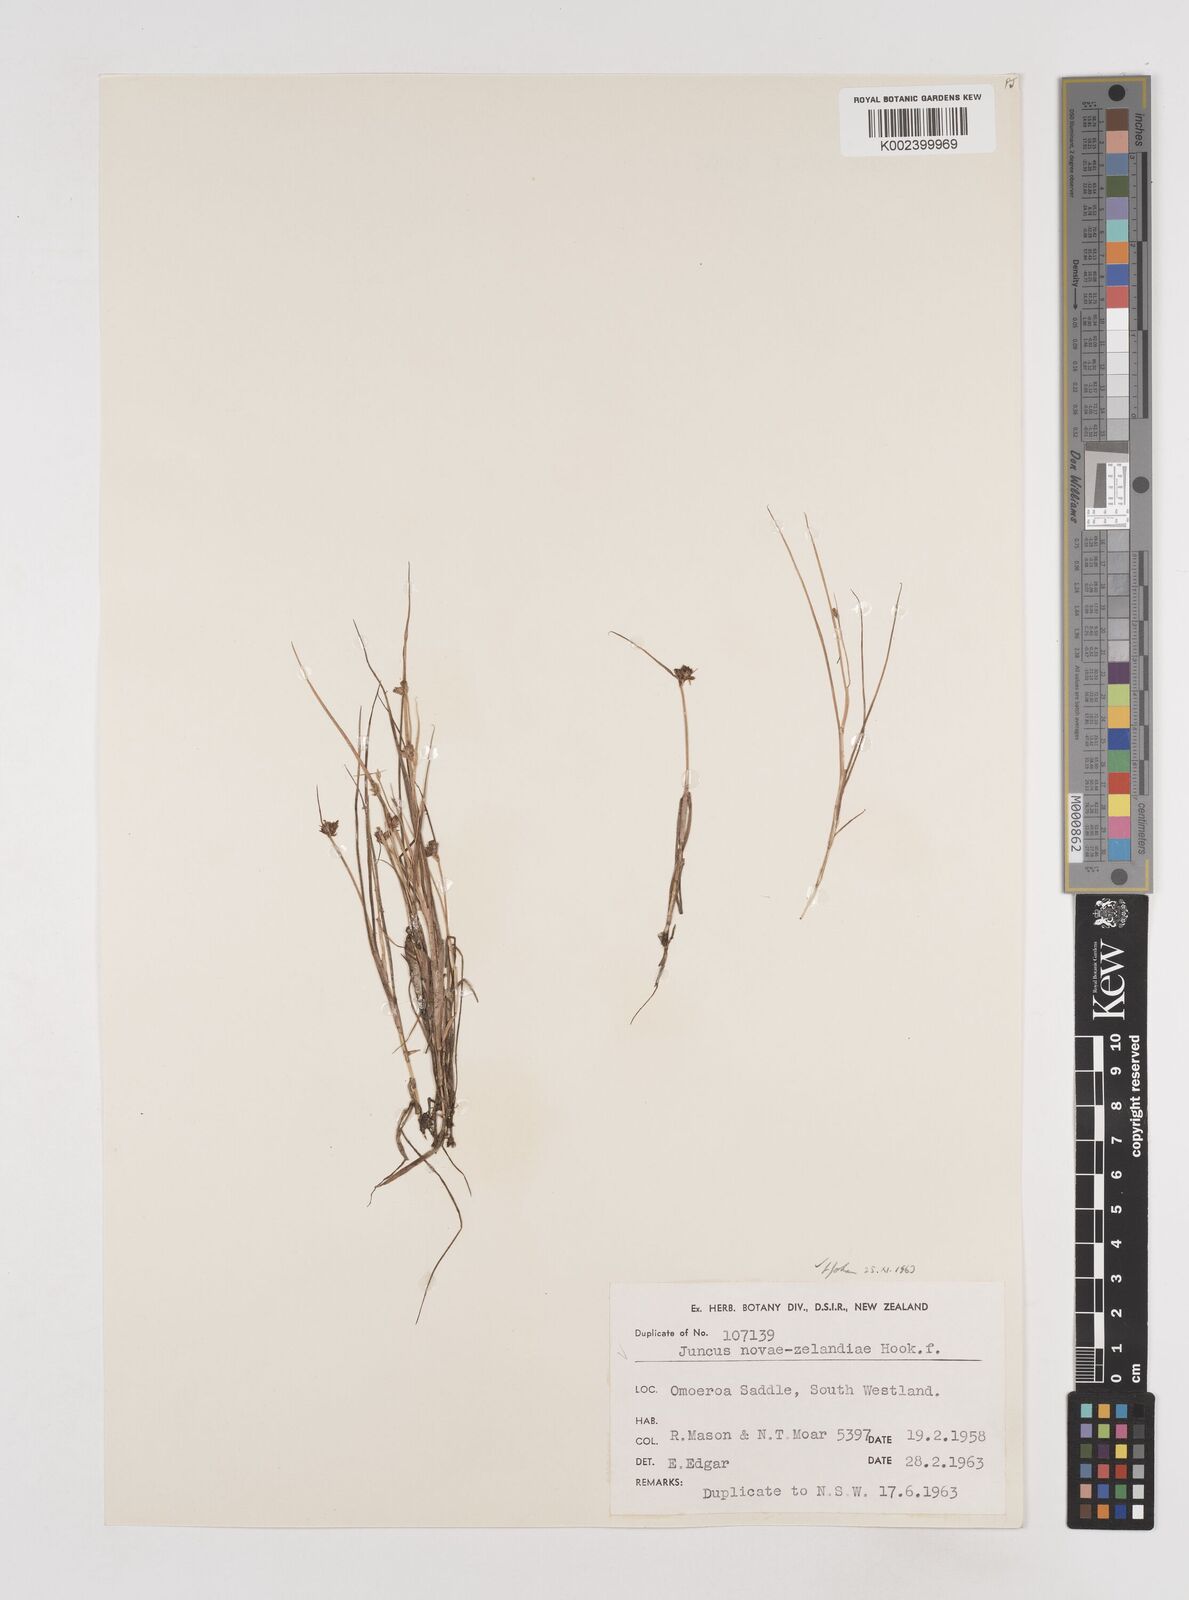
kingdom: Plantae
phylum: Tracheophyta
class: Liliopsida
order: Poales
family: Juncaceae
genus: Juncus
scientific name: Juncus novae-zelandiae
